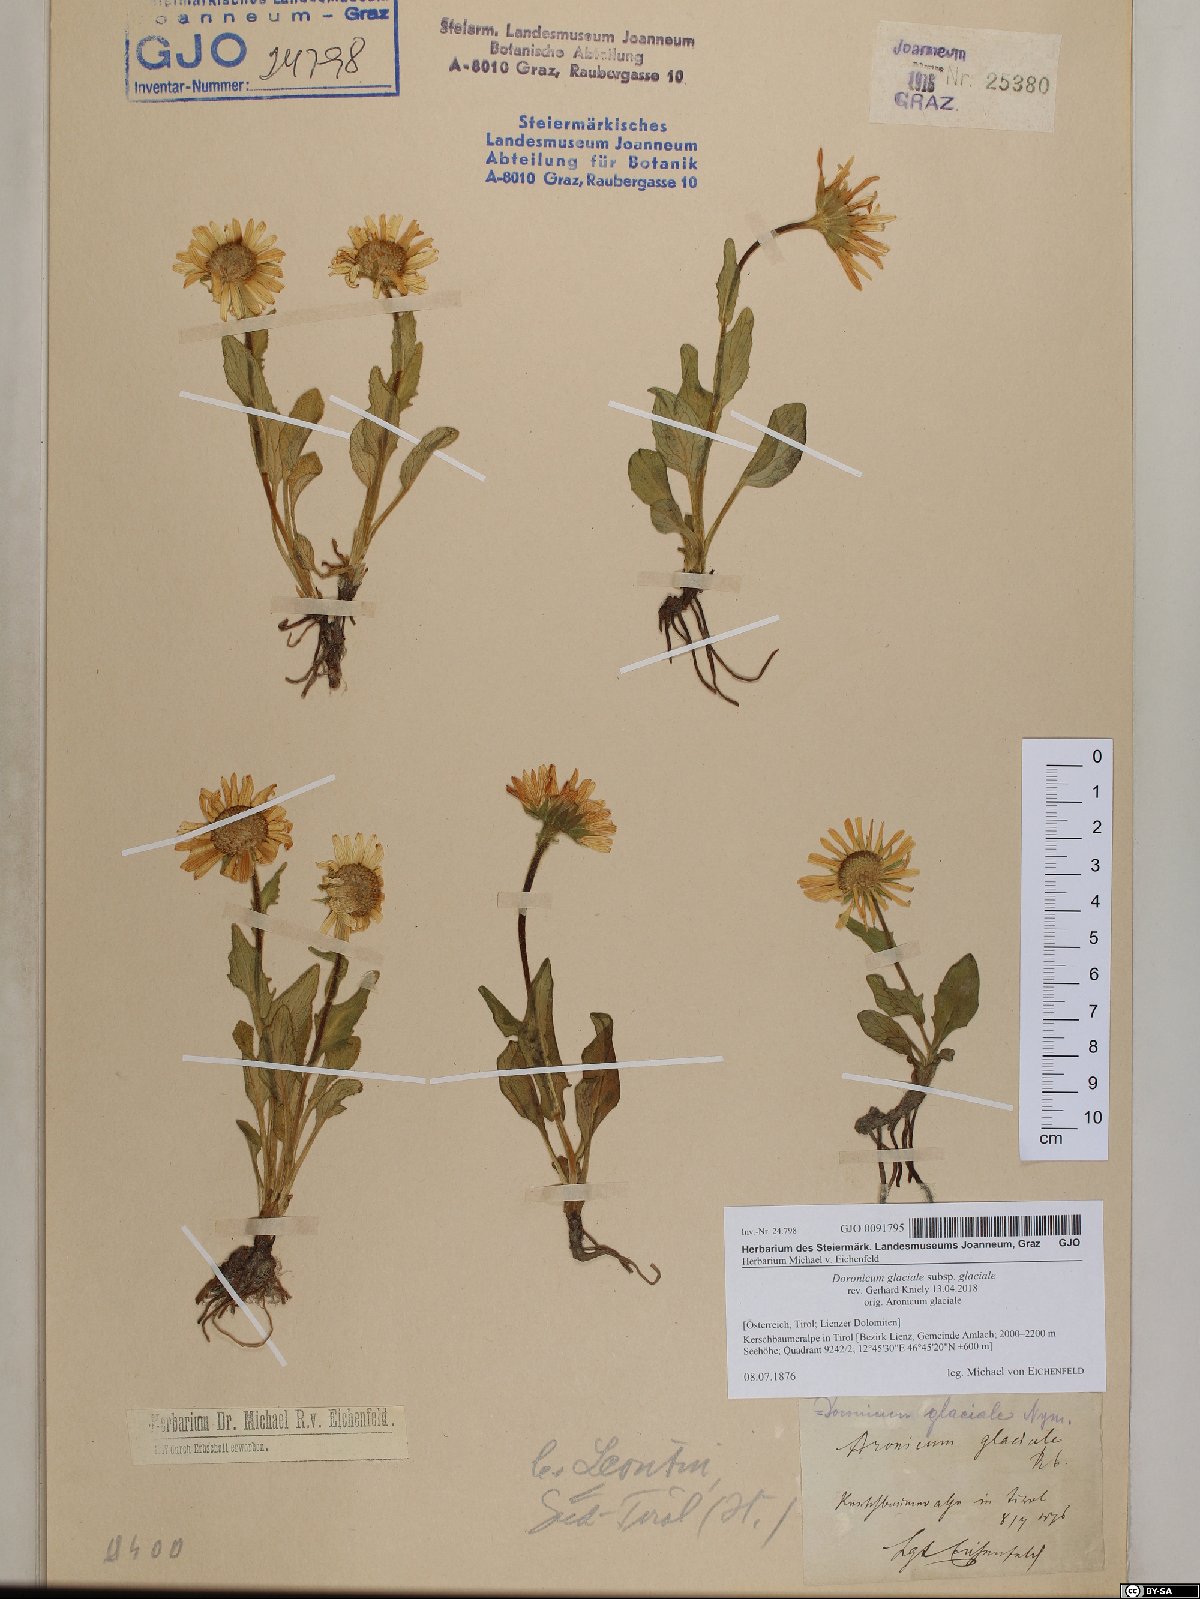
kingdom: Plantae
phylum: Tracheophyta
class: Magnoliopsida
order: Asterales
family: Asteraceae
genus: Doronicum
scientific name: Doronicum glaciale
